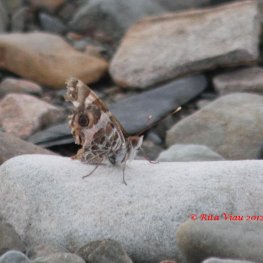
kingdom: Animalia
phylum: Arthropoda
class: Insecta
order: Lepidoptera
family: Nymphalidae
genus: Vanessa
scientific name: Vanessa virginiensis
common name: American Lady
